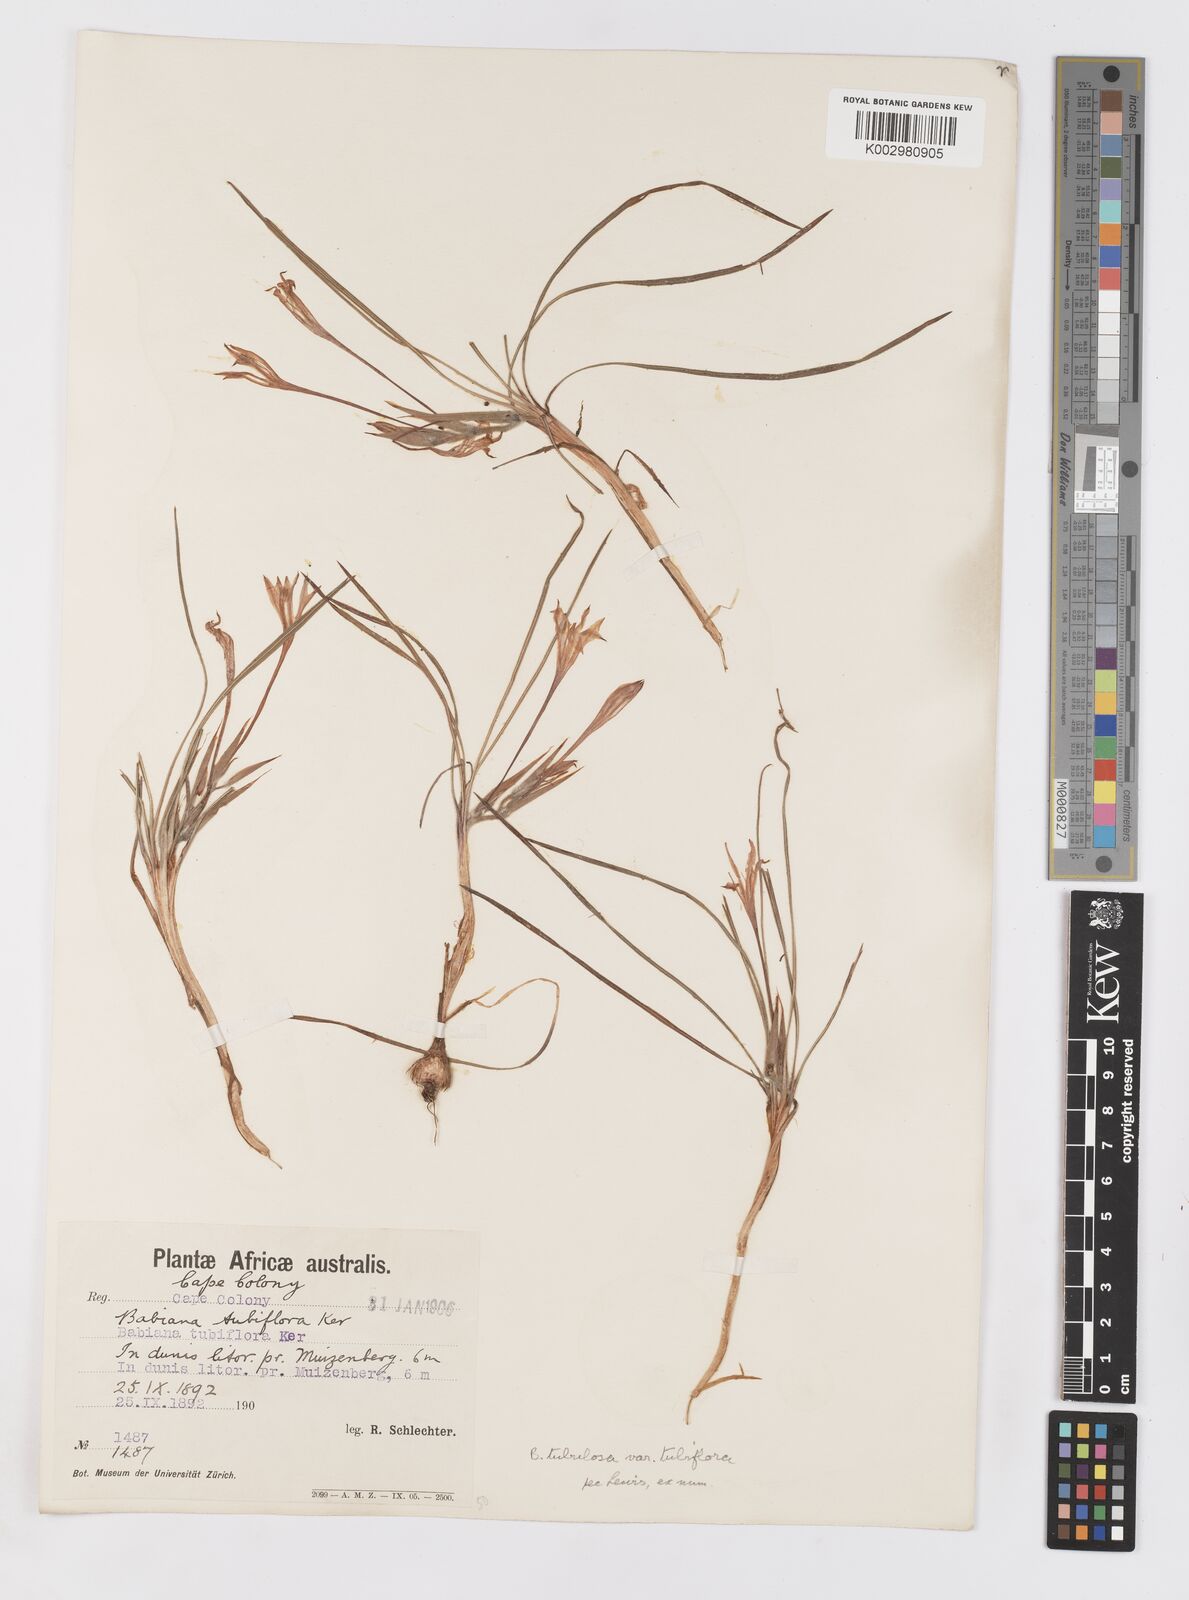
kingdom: Plantae
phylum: Tracheophyta
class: Liliopsida
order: Asparagales
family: Iridaceae
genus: Babiana
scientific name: Babiana tubiflora
